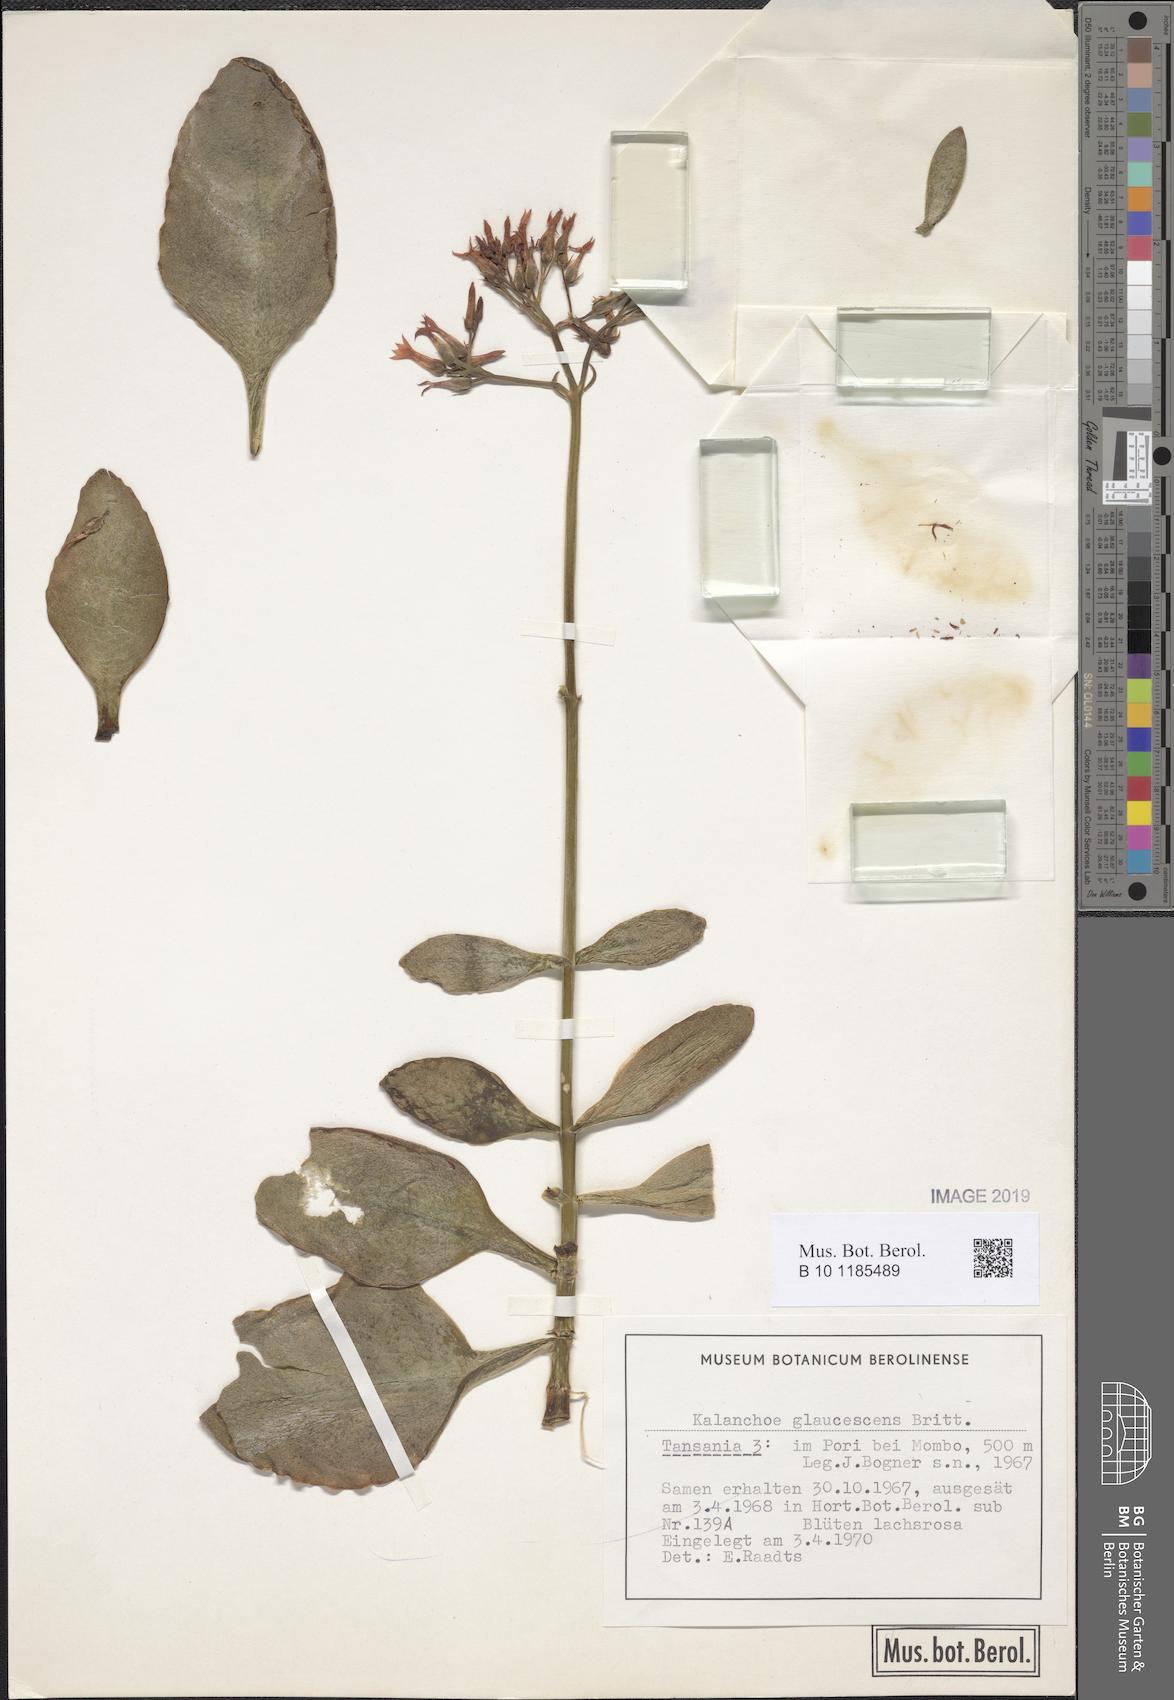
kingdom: Plantae
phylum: Tracheophyta
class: Magnoliopsida
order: Saxifragales
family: Crassulaceae
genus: Kalanchoe
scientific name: Kalanchoe glaucescens
